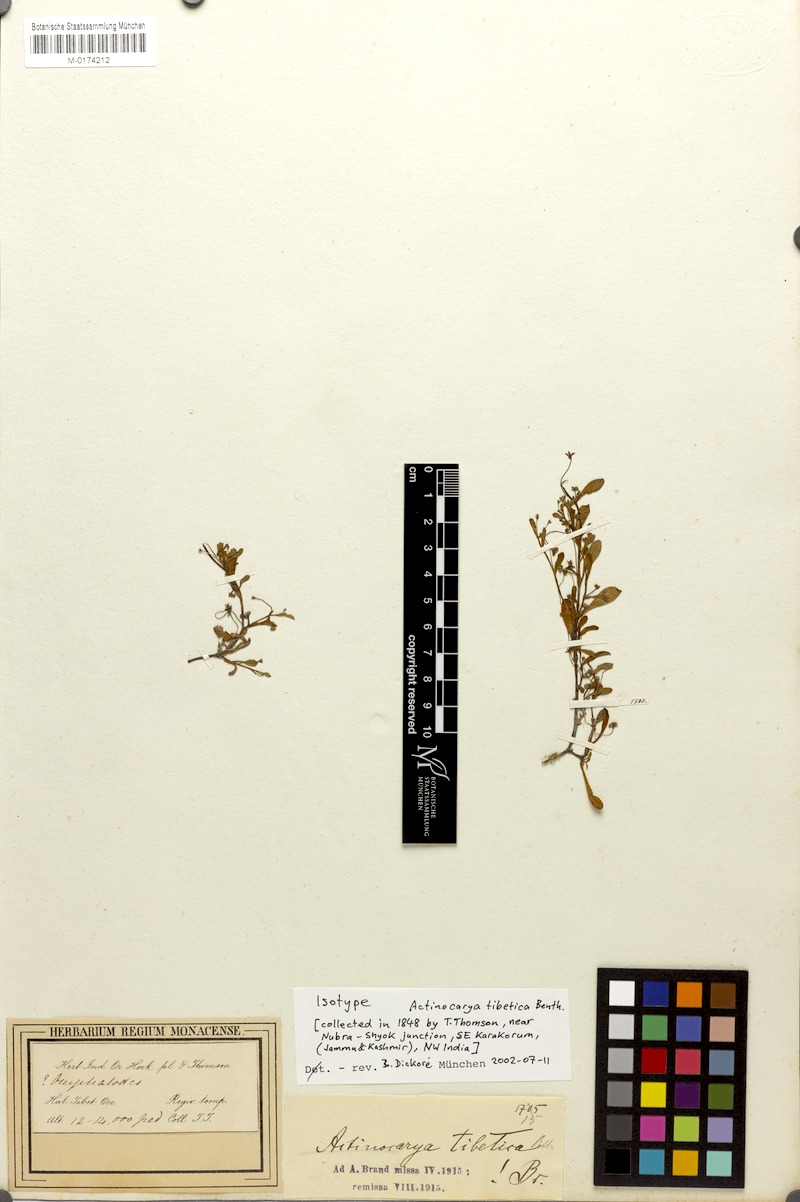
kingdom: Plantae
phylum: Tracheophyta
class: Magnoliopsida
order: Boraginales
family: Boraginaceae
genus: Actinocarya
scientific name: Actinocarya tibetica
